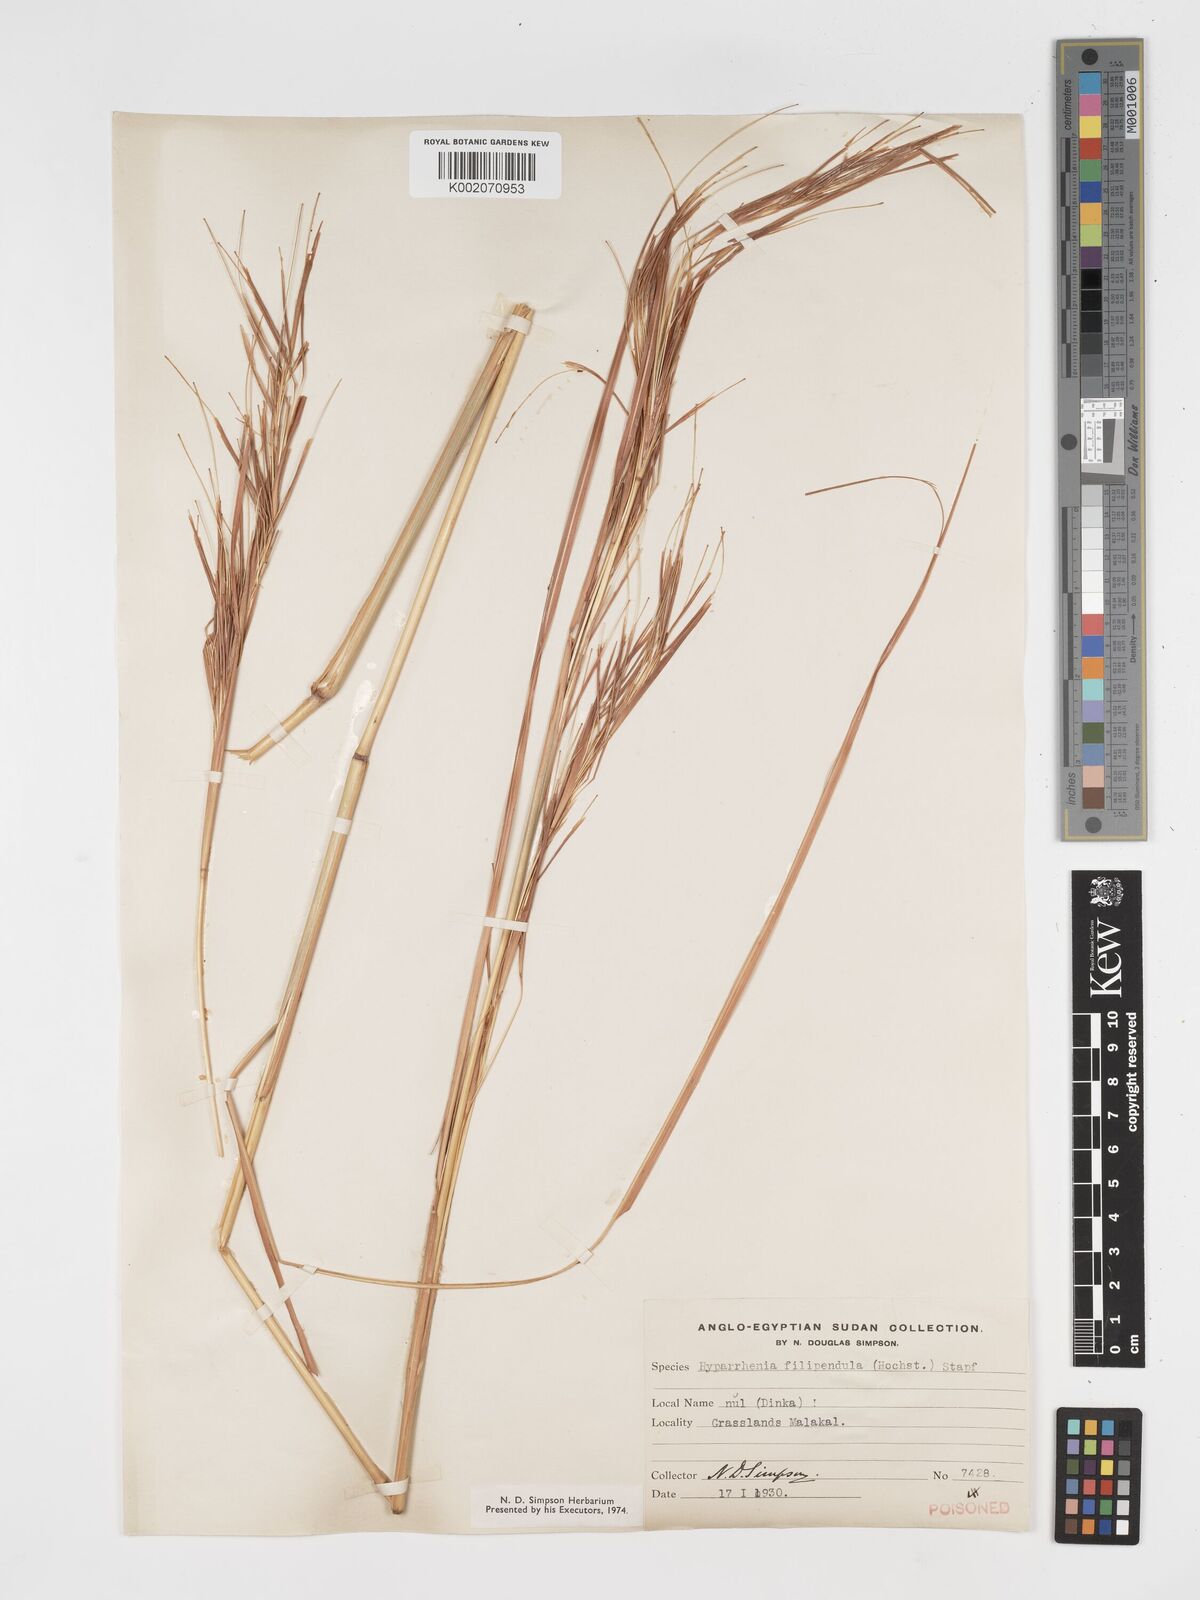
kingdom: Plantae
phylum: Tracheophyta
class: Liliopsida
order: Poales
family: Poaceae
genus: Hyparrhenia
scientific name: Hyparrhenia filipendula
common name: Tambookie grass
